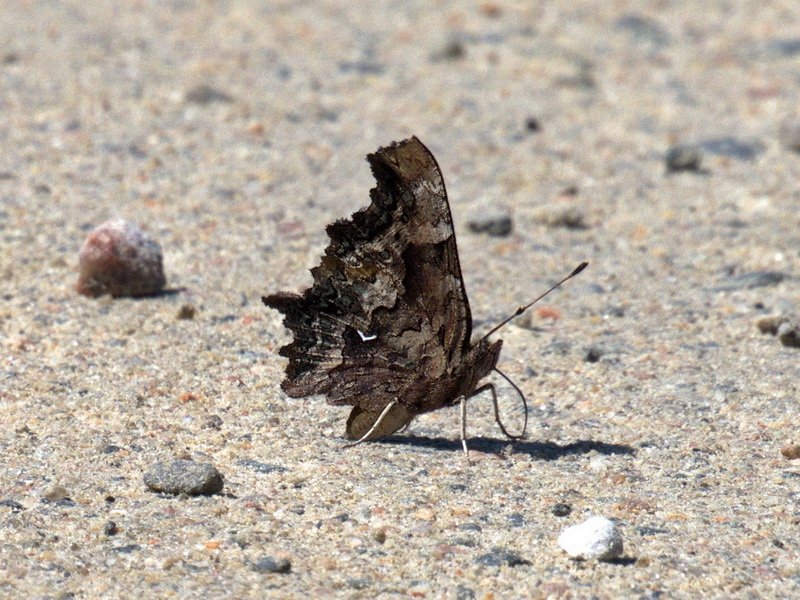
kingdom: Animalia
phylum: Arthropoda
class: Insecta
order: Lepidoptera
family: Nymphalidae
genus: Polygonia
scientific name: Polygonia faunus
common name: Green Comma
